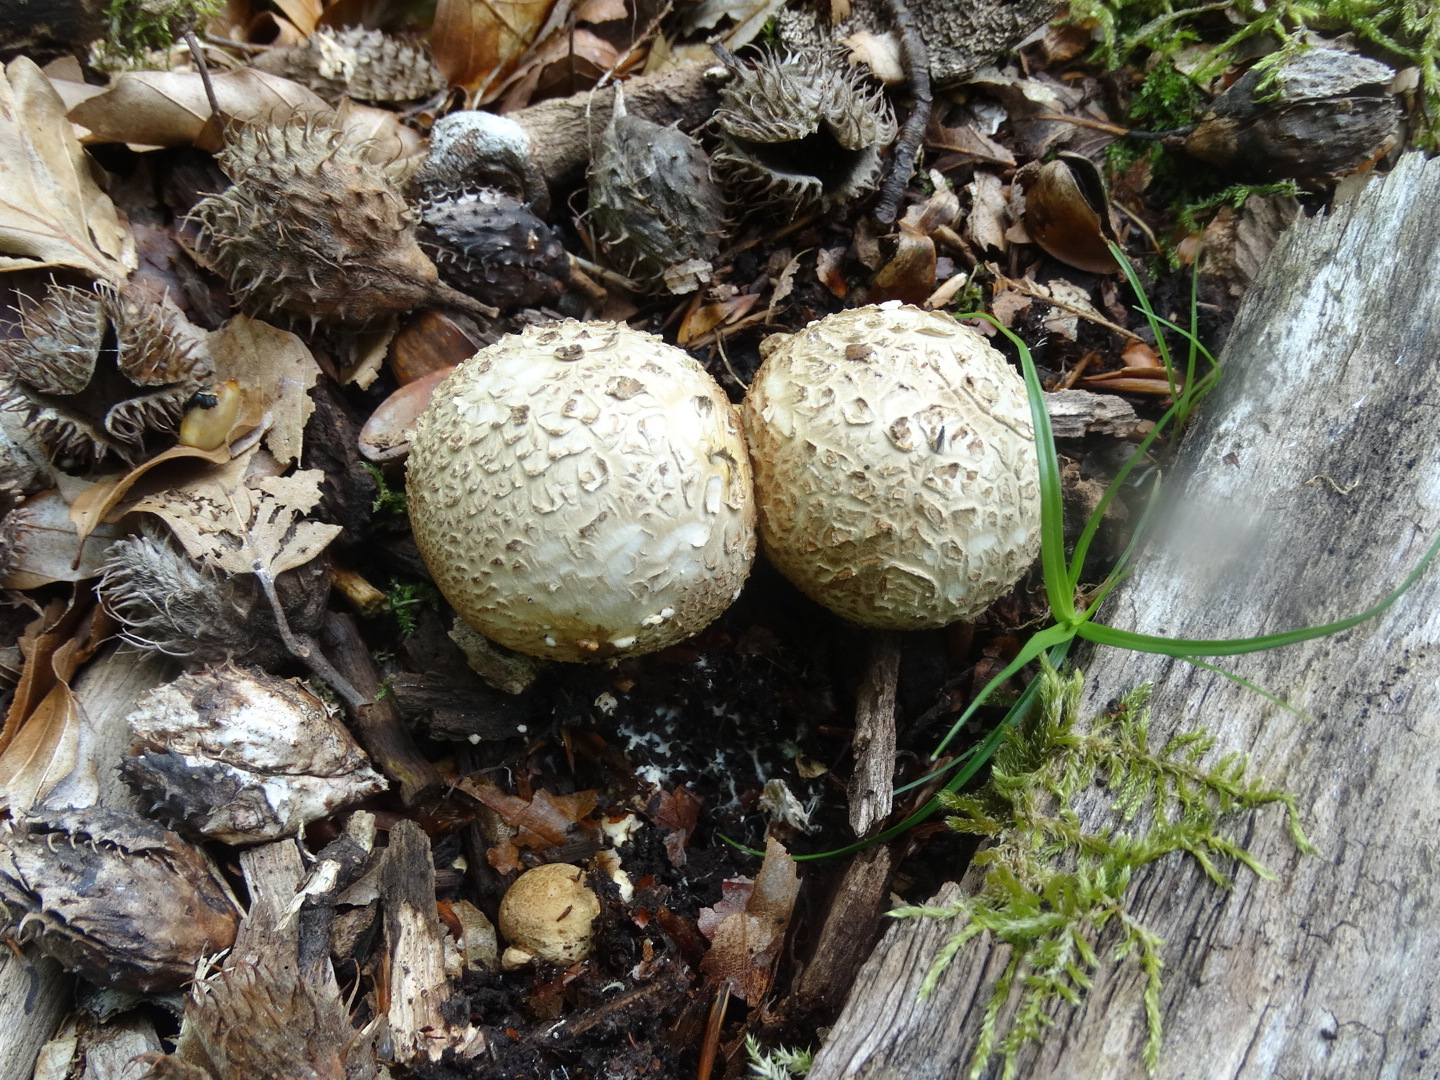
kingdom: Fungi
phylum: Basidiomycota
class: Agaricomycetes
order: Boletales
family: Sclerodermataceae
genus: Scleroderma
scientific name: Scleroderma citrinum
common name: almindelig bruskbold
